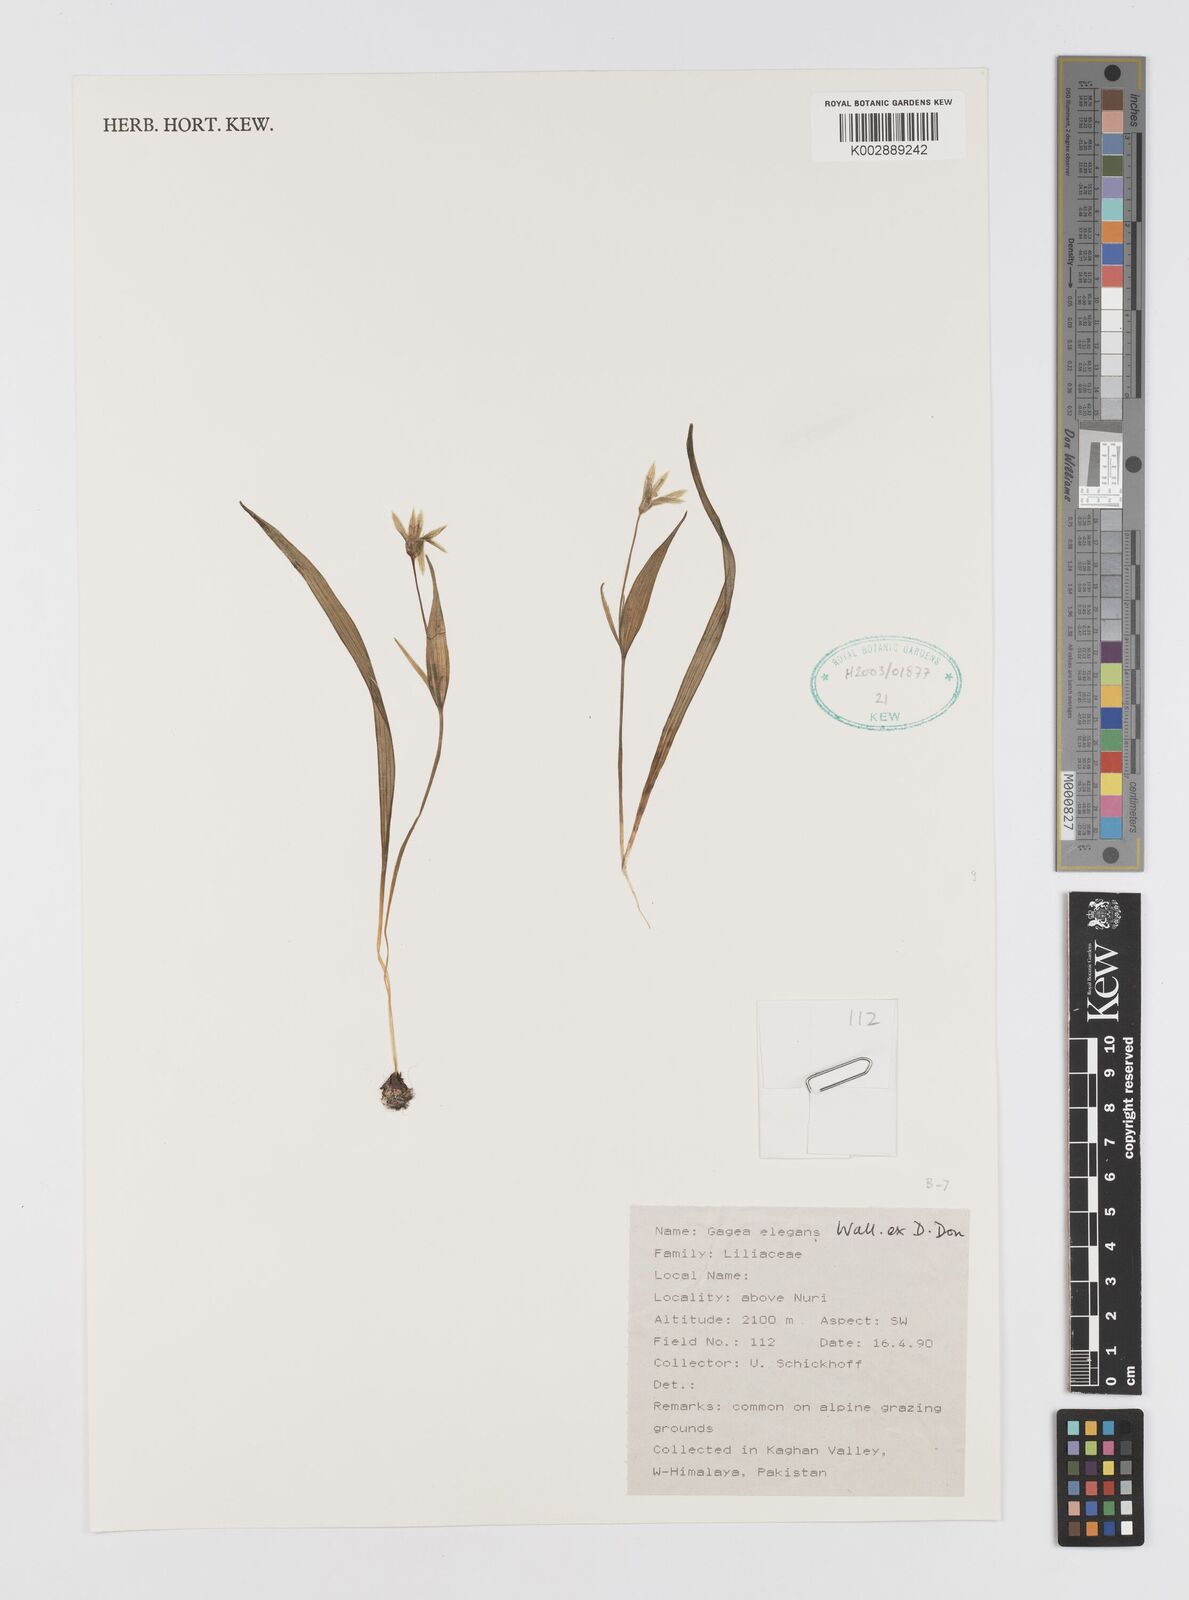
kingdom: Plantae
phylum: Tracheophyta
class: Liliopsida
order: Liliales
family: Liliaceae
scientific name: Liliaceae
